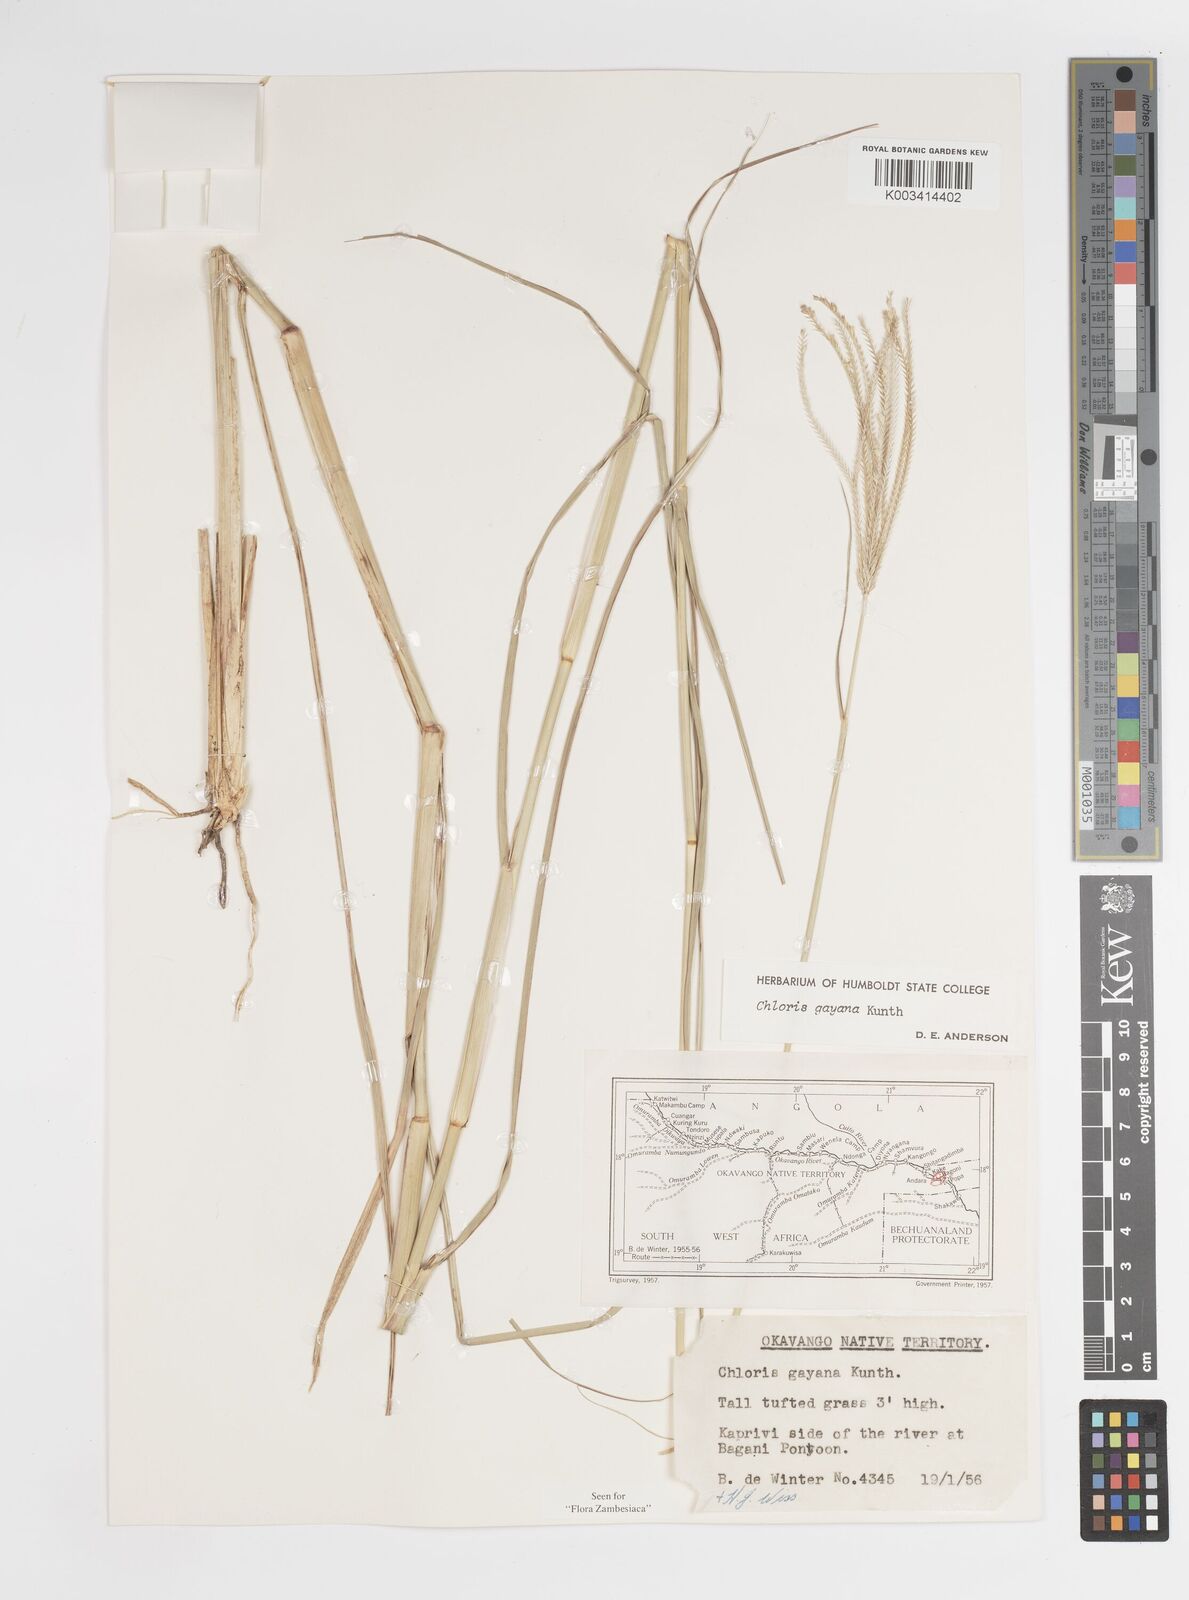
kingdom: Plantae
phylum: Tracheophyta
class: Liliopsida
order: Poales
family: Poaceae
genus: Chloris
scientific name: Chloris gayana
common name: Rhodes grass
